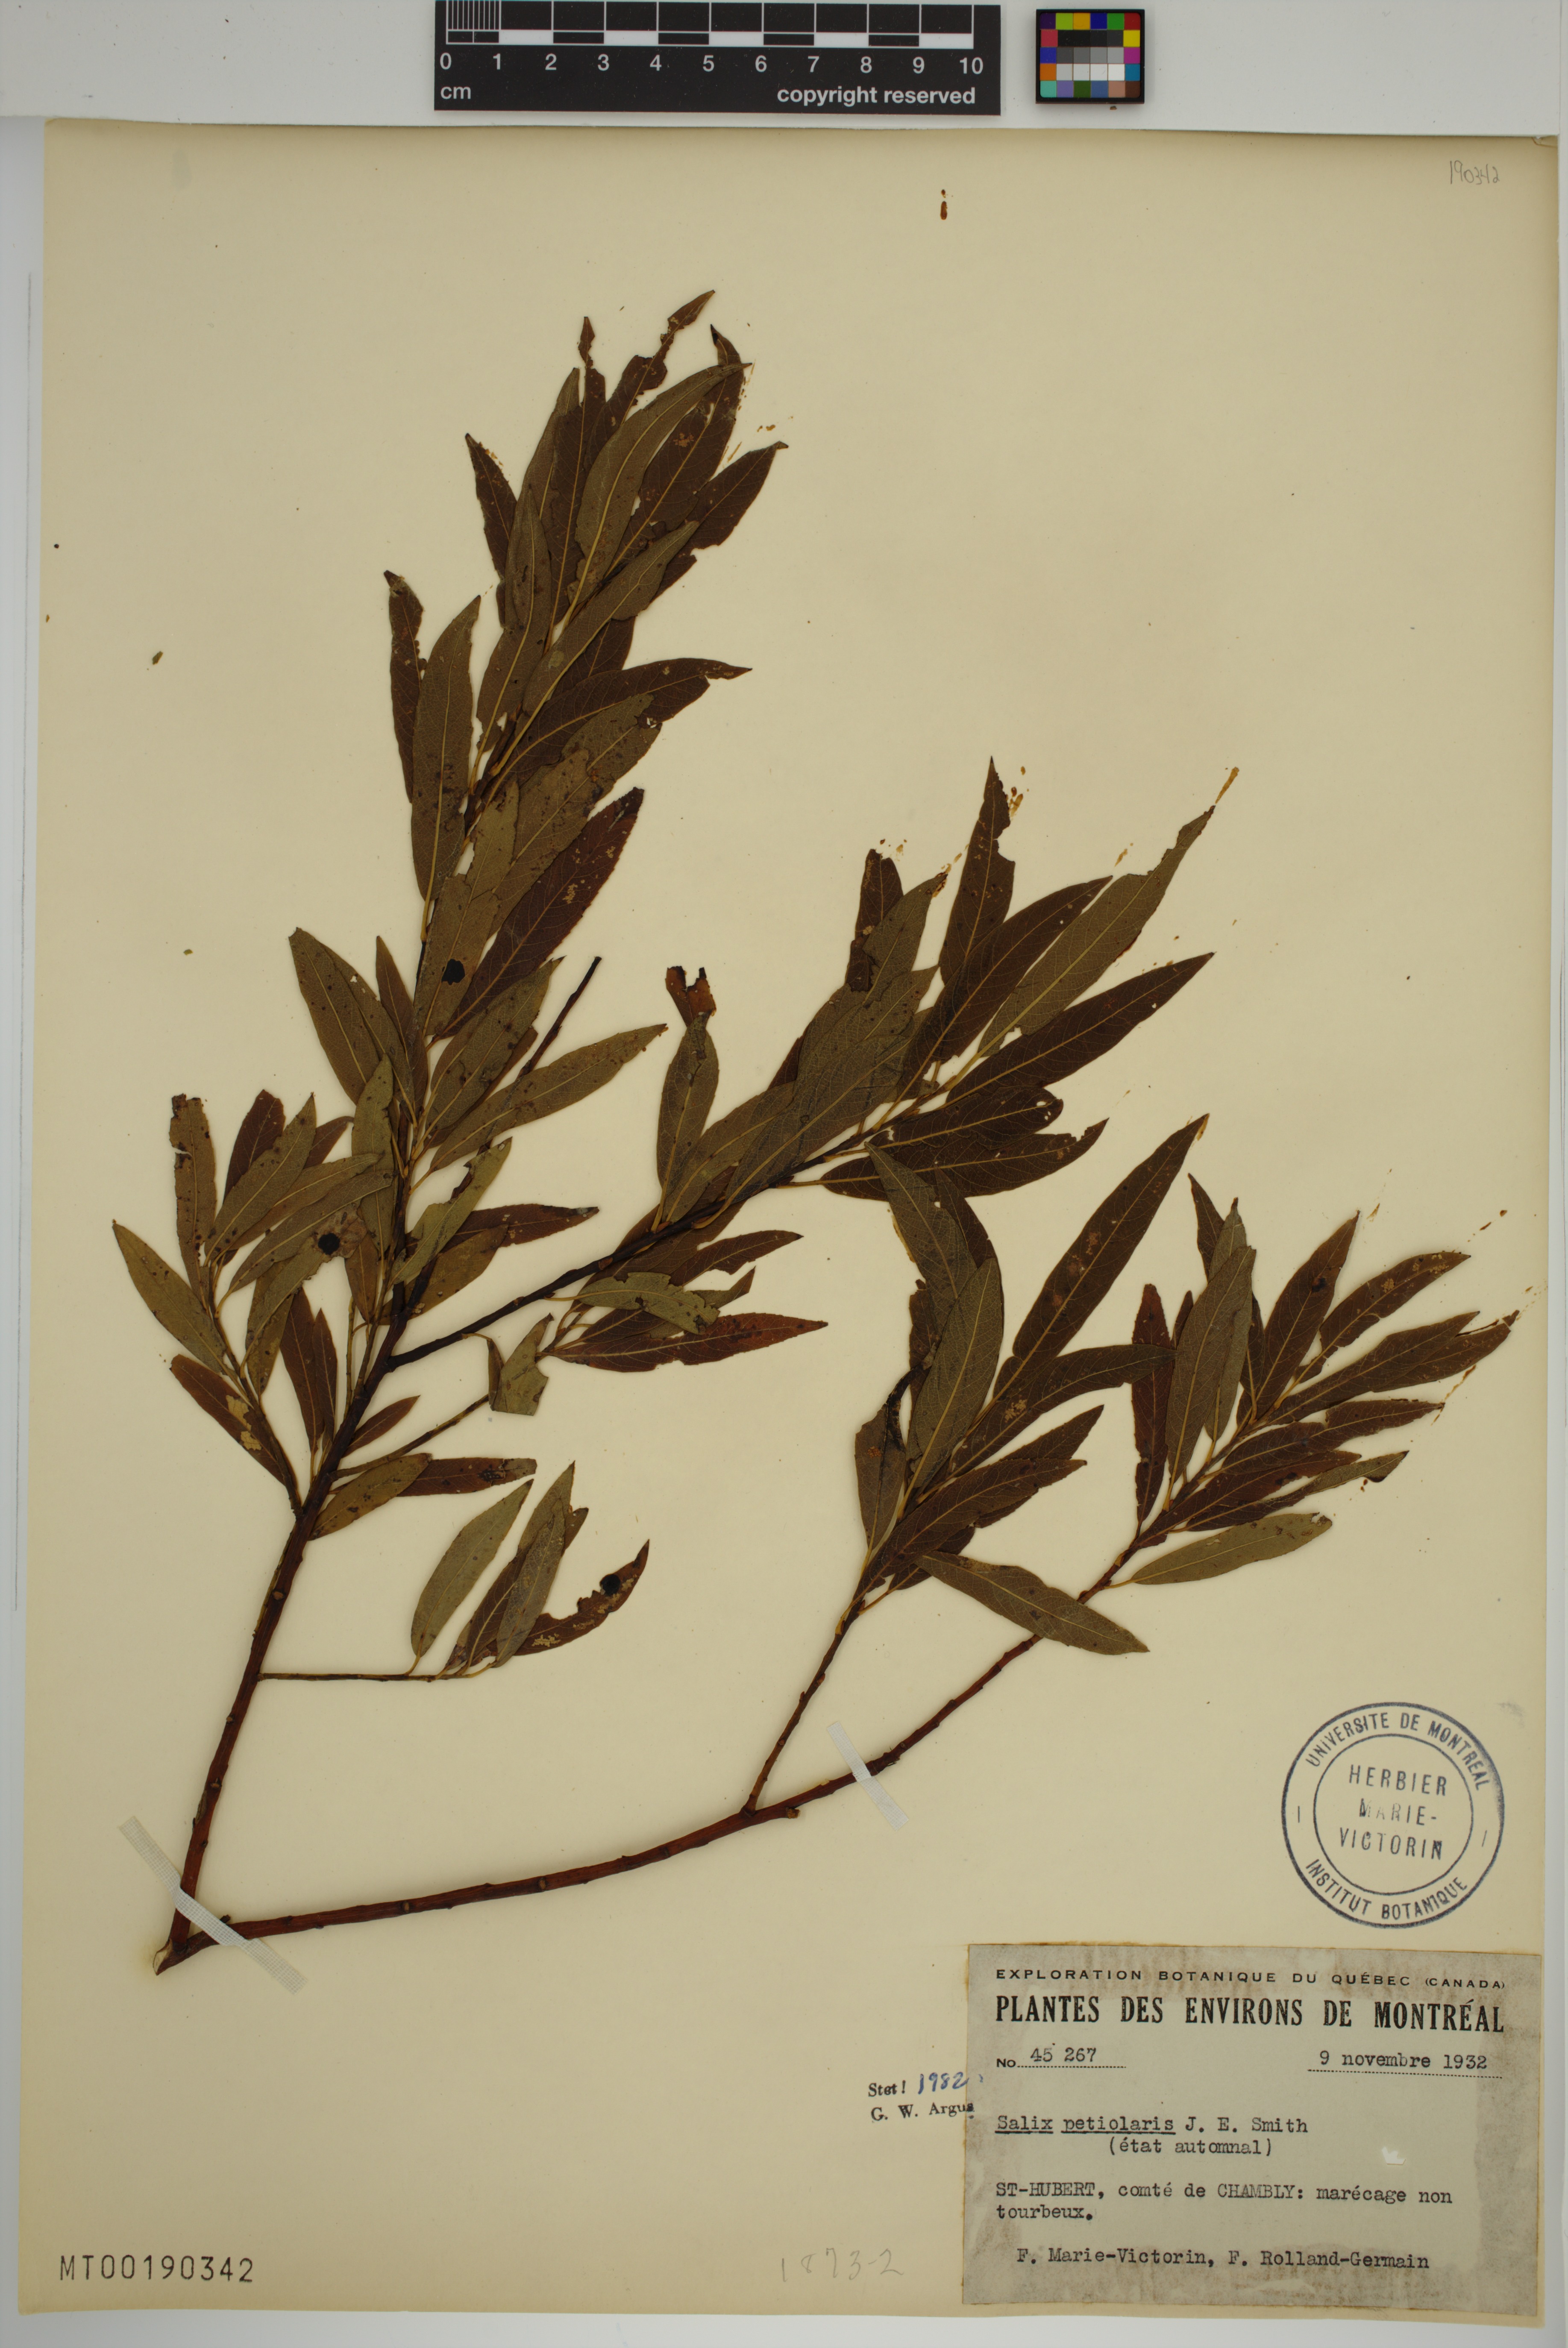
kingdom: Plantae
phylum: Tracheophyta
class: Magnoliopsida
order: Malpighiales
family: Salicaceae
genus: Salix
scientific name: Salix petiolaris
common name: Slender willow
